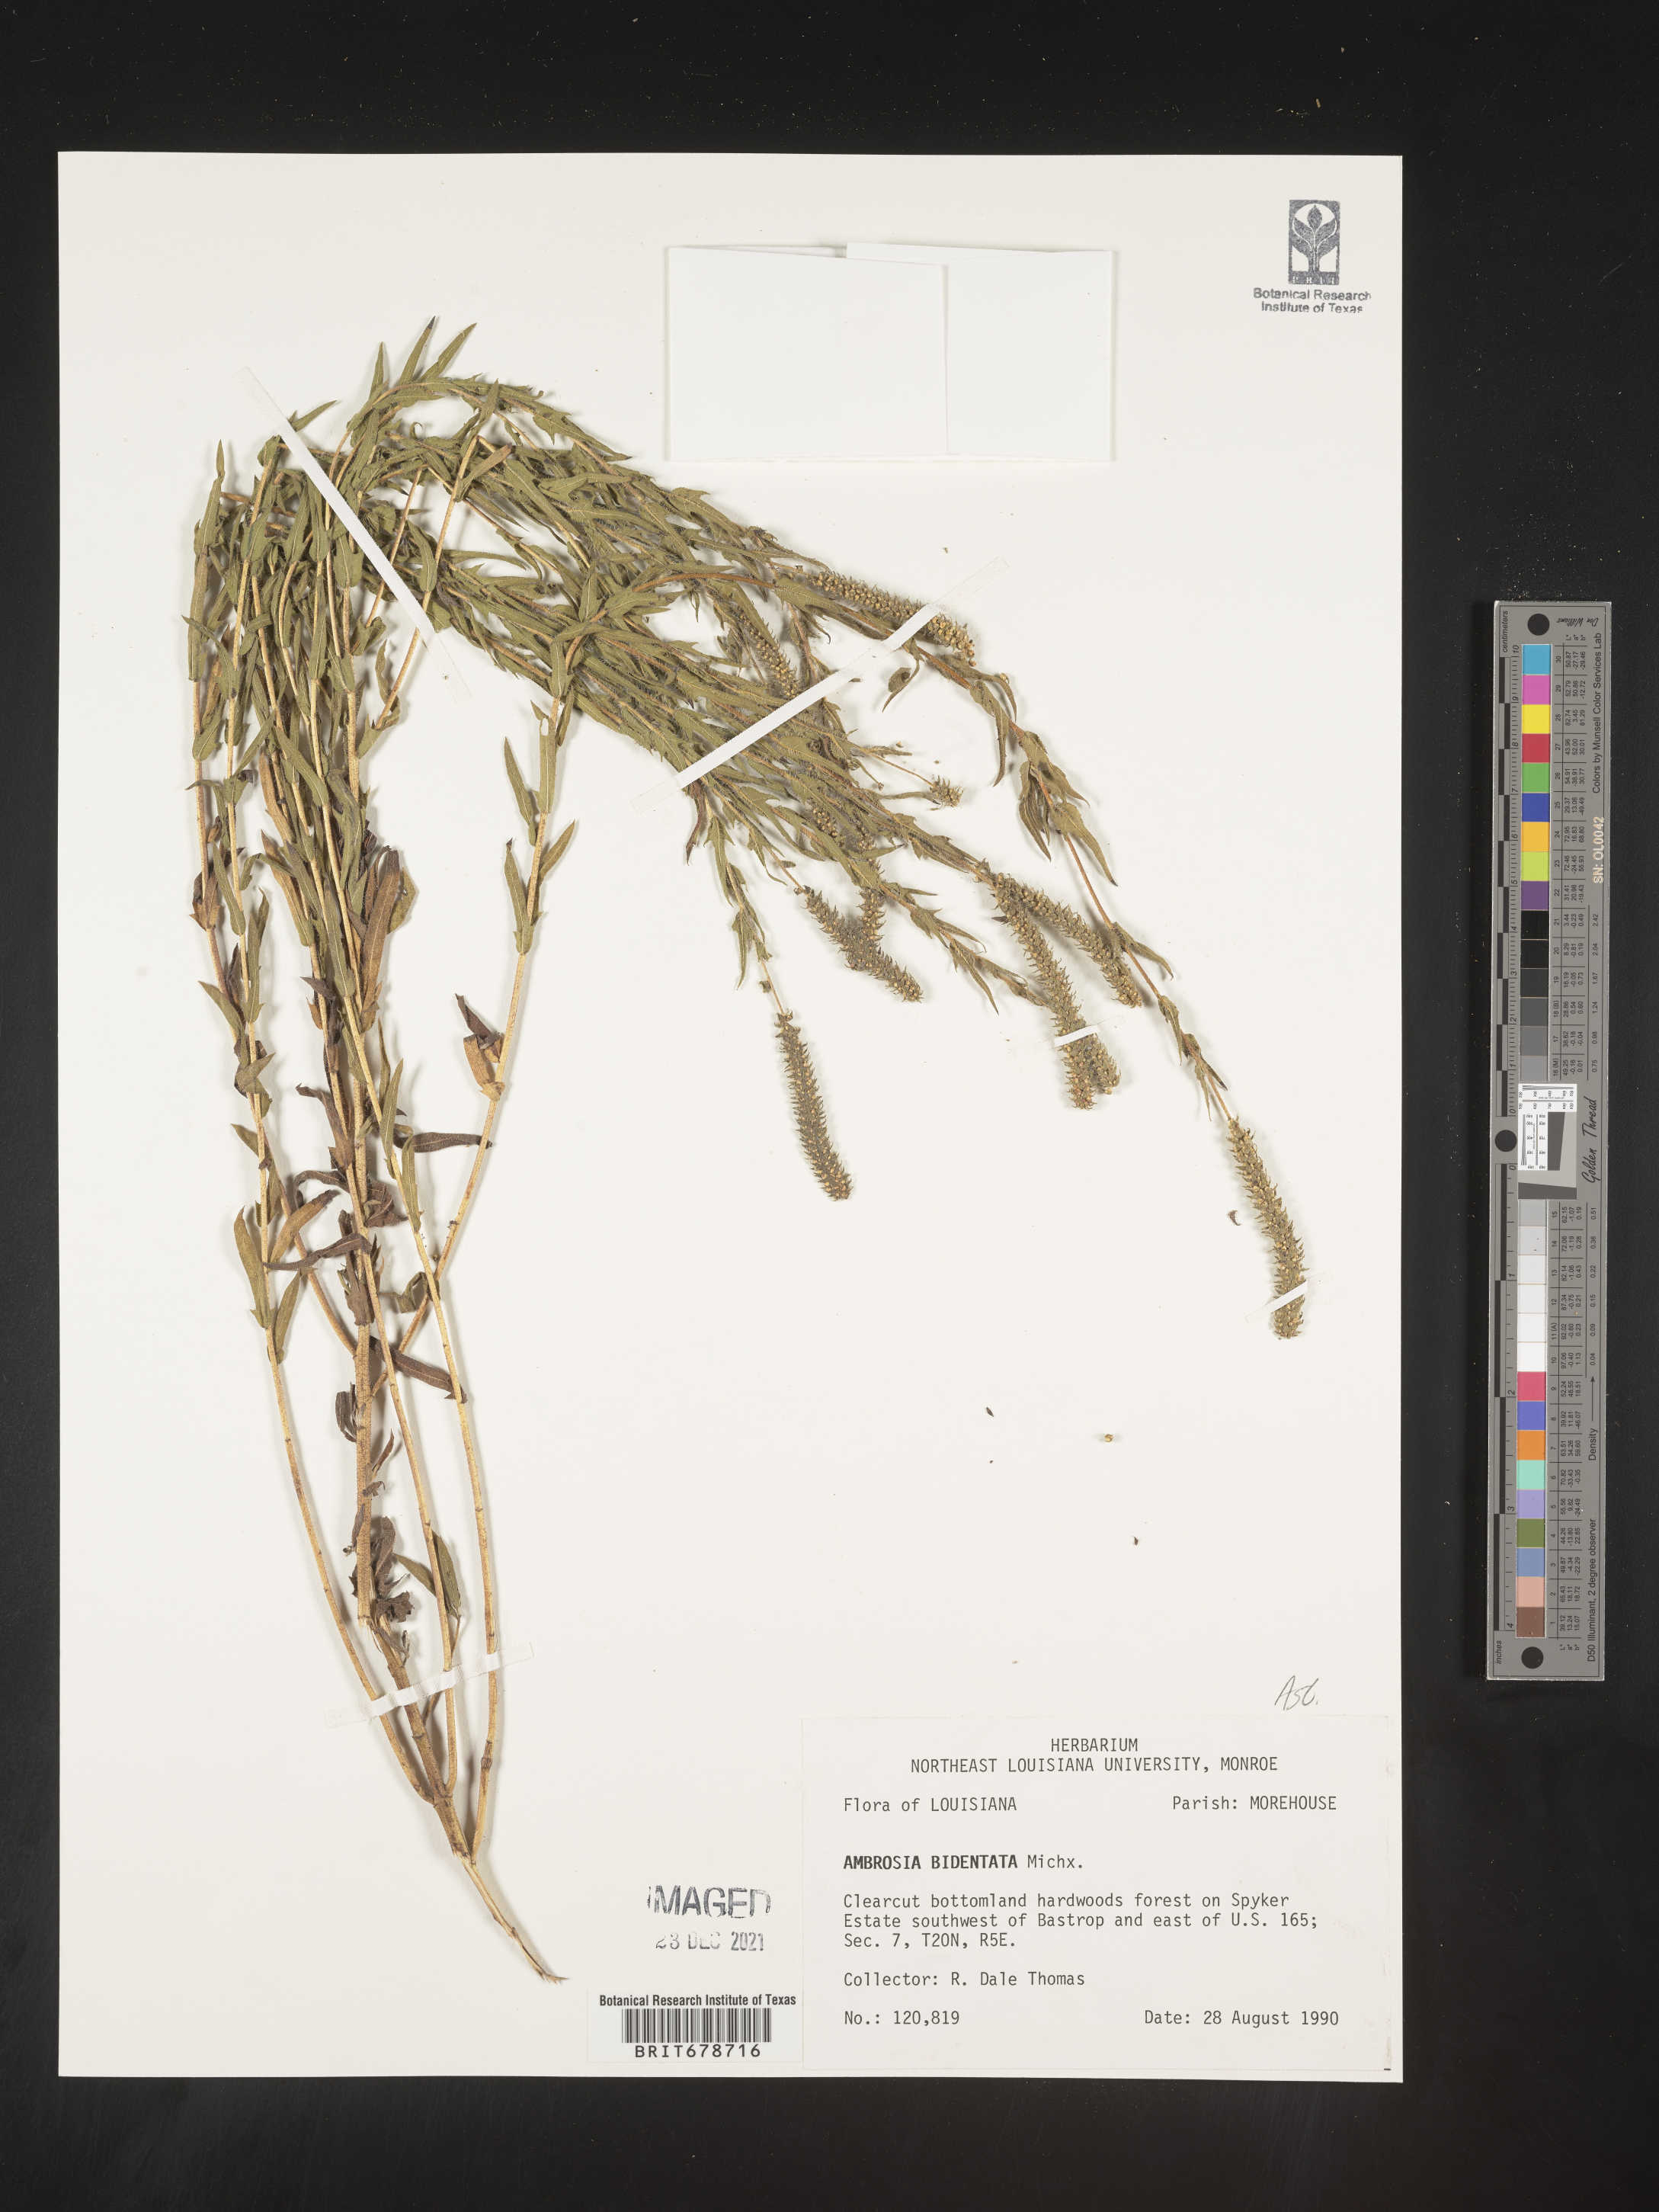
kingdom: Plantae
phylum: Tracheophyta
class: Magnoliopsida
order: Asterales
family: Asteraceae
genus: Ambrosia
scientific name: Ambrosia bidentata
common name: Southern ragweed
